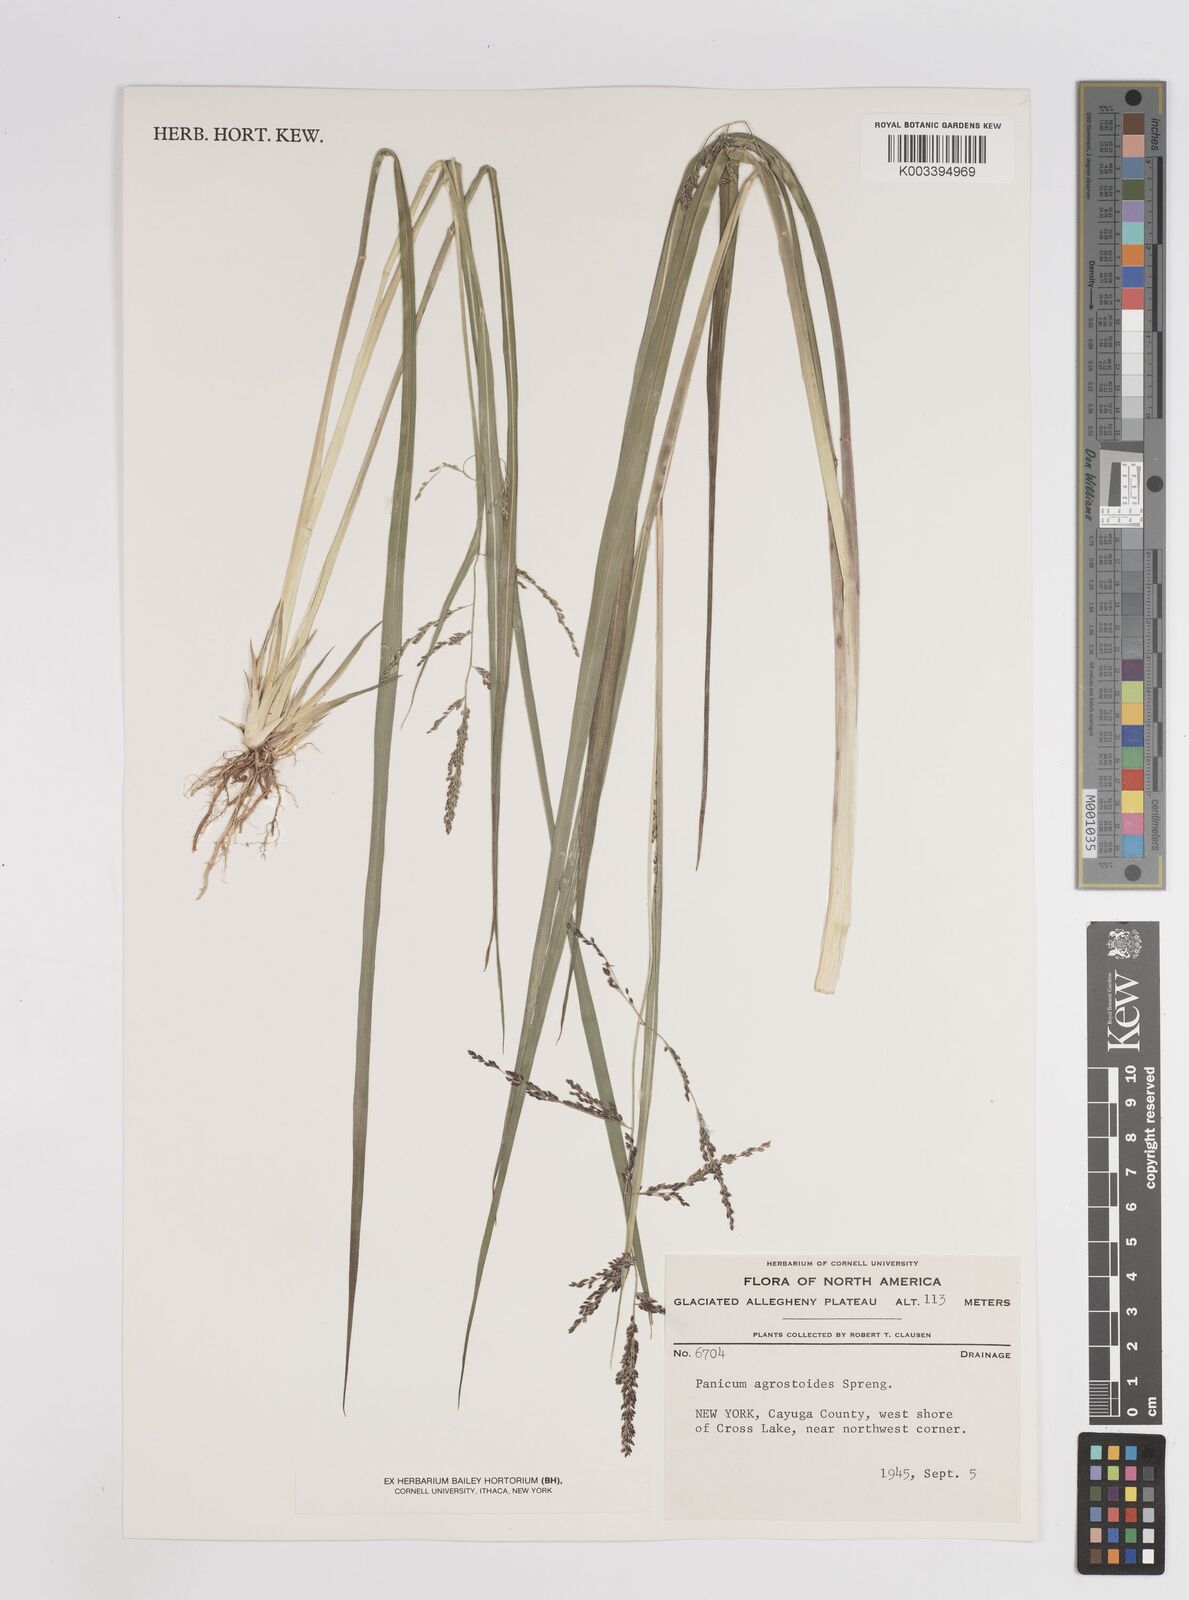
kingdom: Plantae
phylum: Tracheophyta
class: Liliopsida
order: Poales
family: Poaceae
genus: Steinchisma
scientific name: Steinchisma laxum
